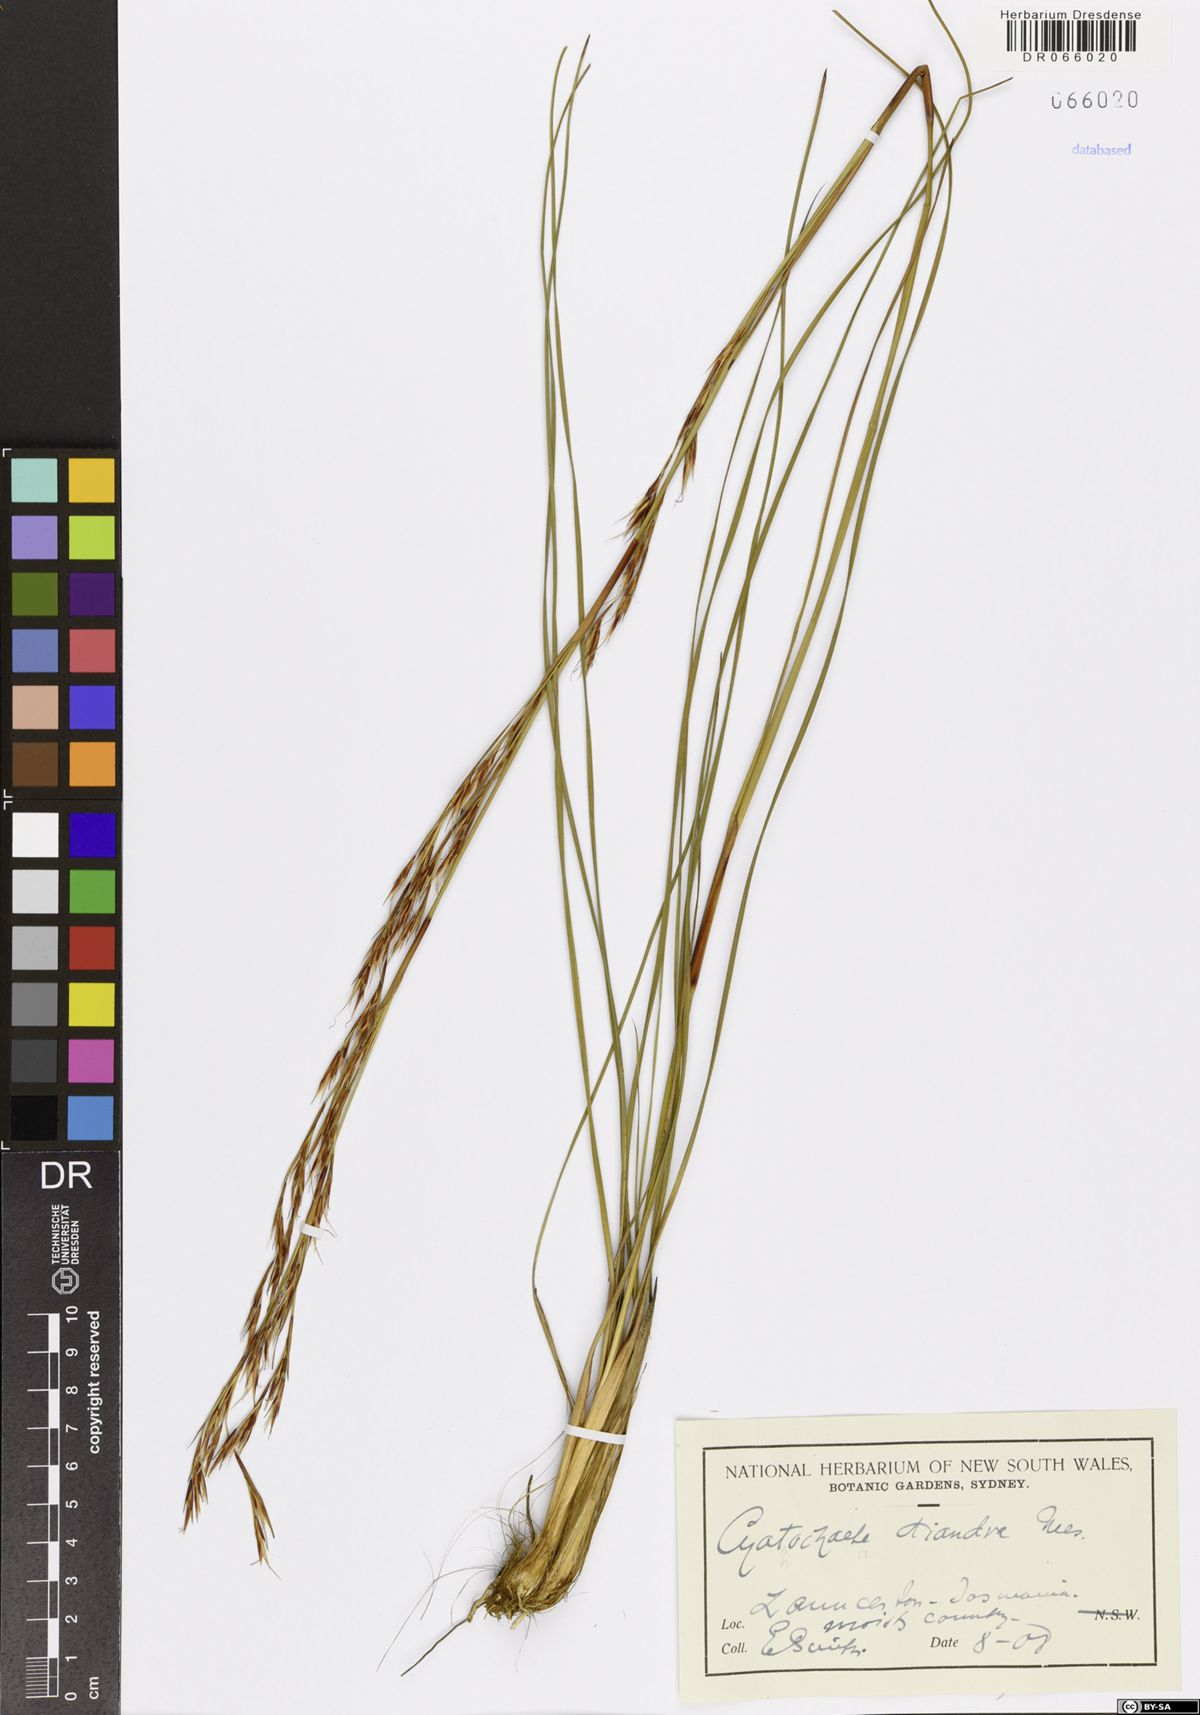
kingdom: Plantae
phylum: Tracheophyta
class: Liliopsida
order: Poales
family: Cyperaceae
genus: Cyathochaeta
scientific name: Cyathochaeta diandra
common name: Sheath rush
